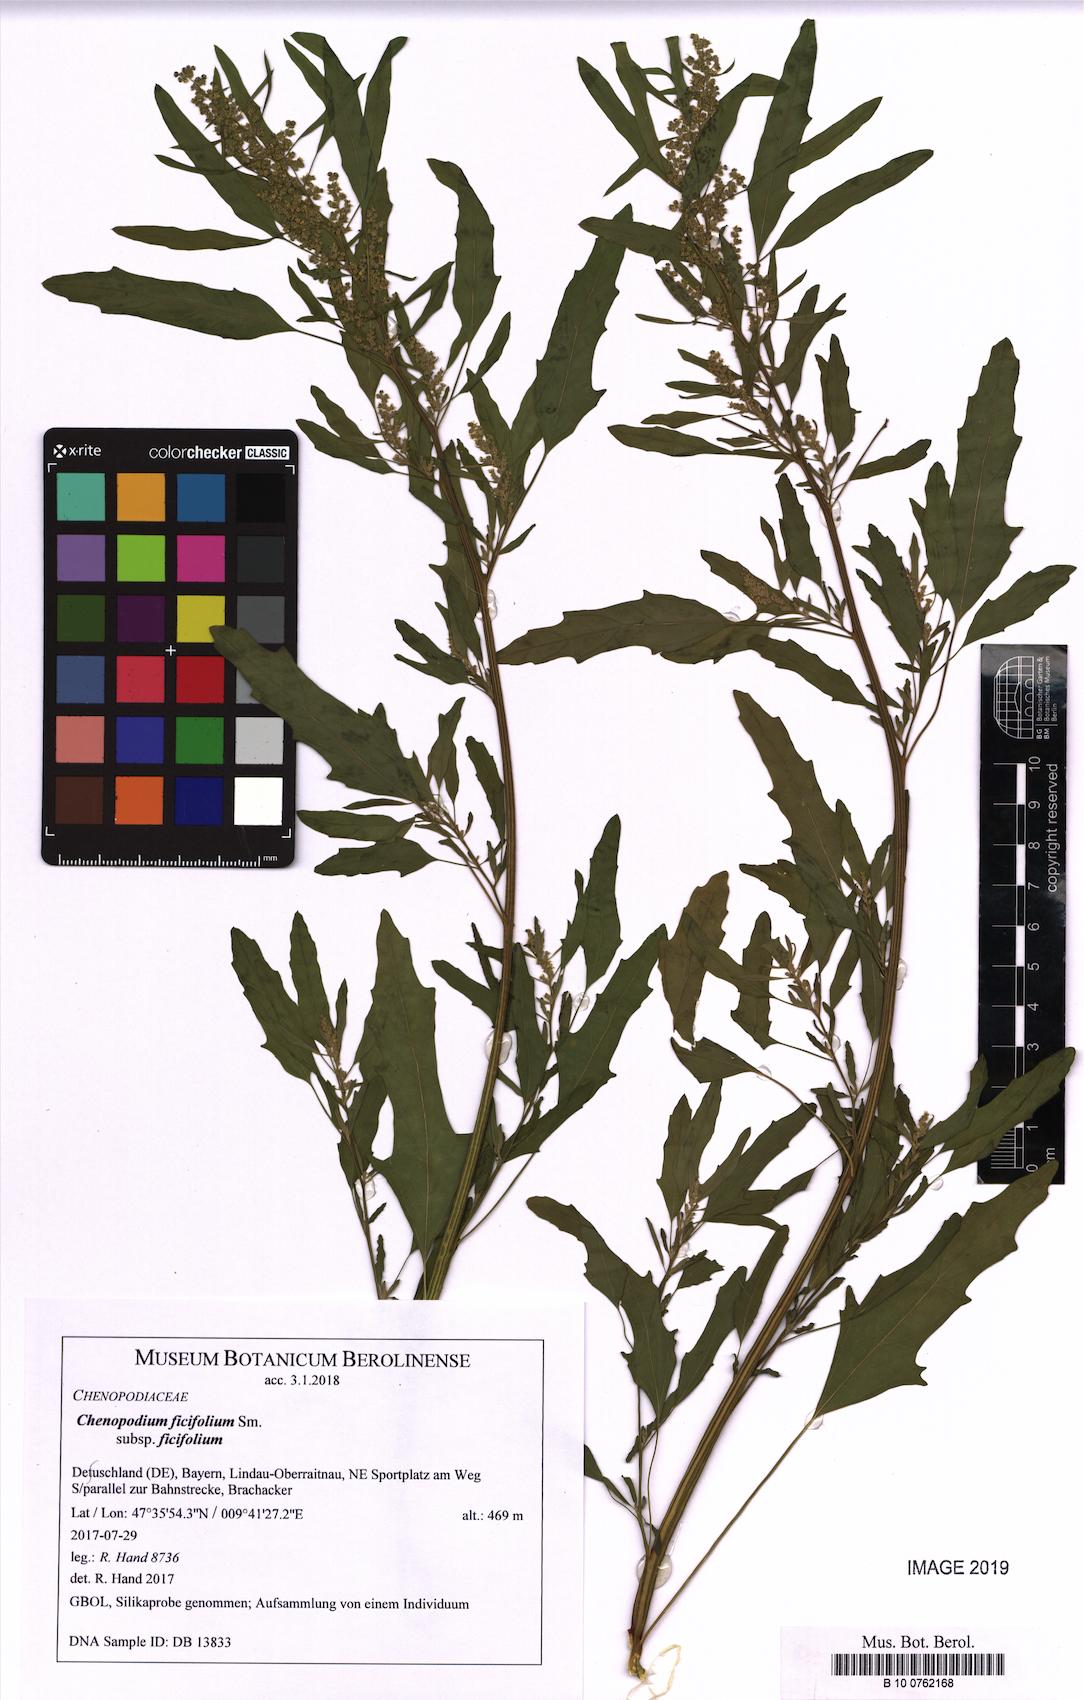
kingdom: Plantae
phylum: Tracheophyta
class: Magnoliopsida
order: Caryophyllales
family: Amaranthaceae
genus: Chenopodium
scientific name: Chenopodium ficifolium
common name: Fig-leaved goosefoot
